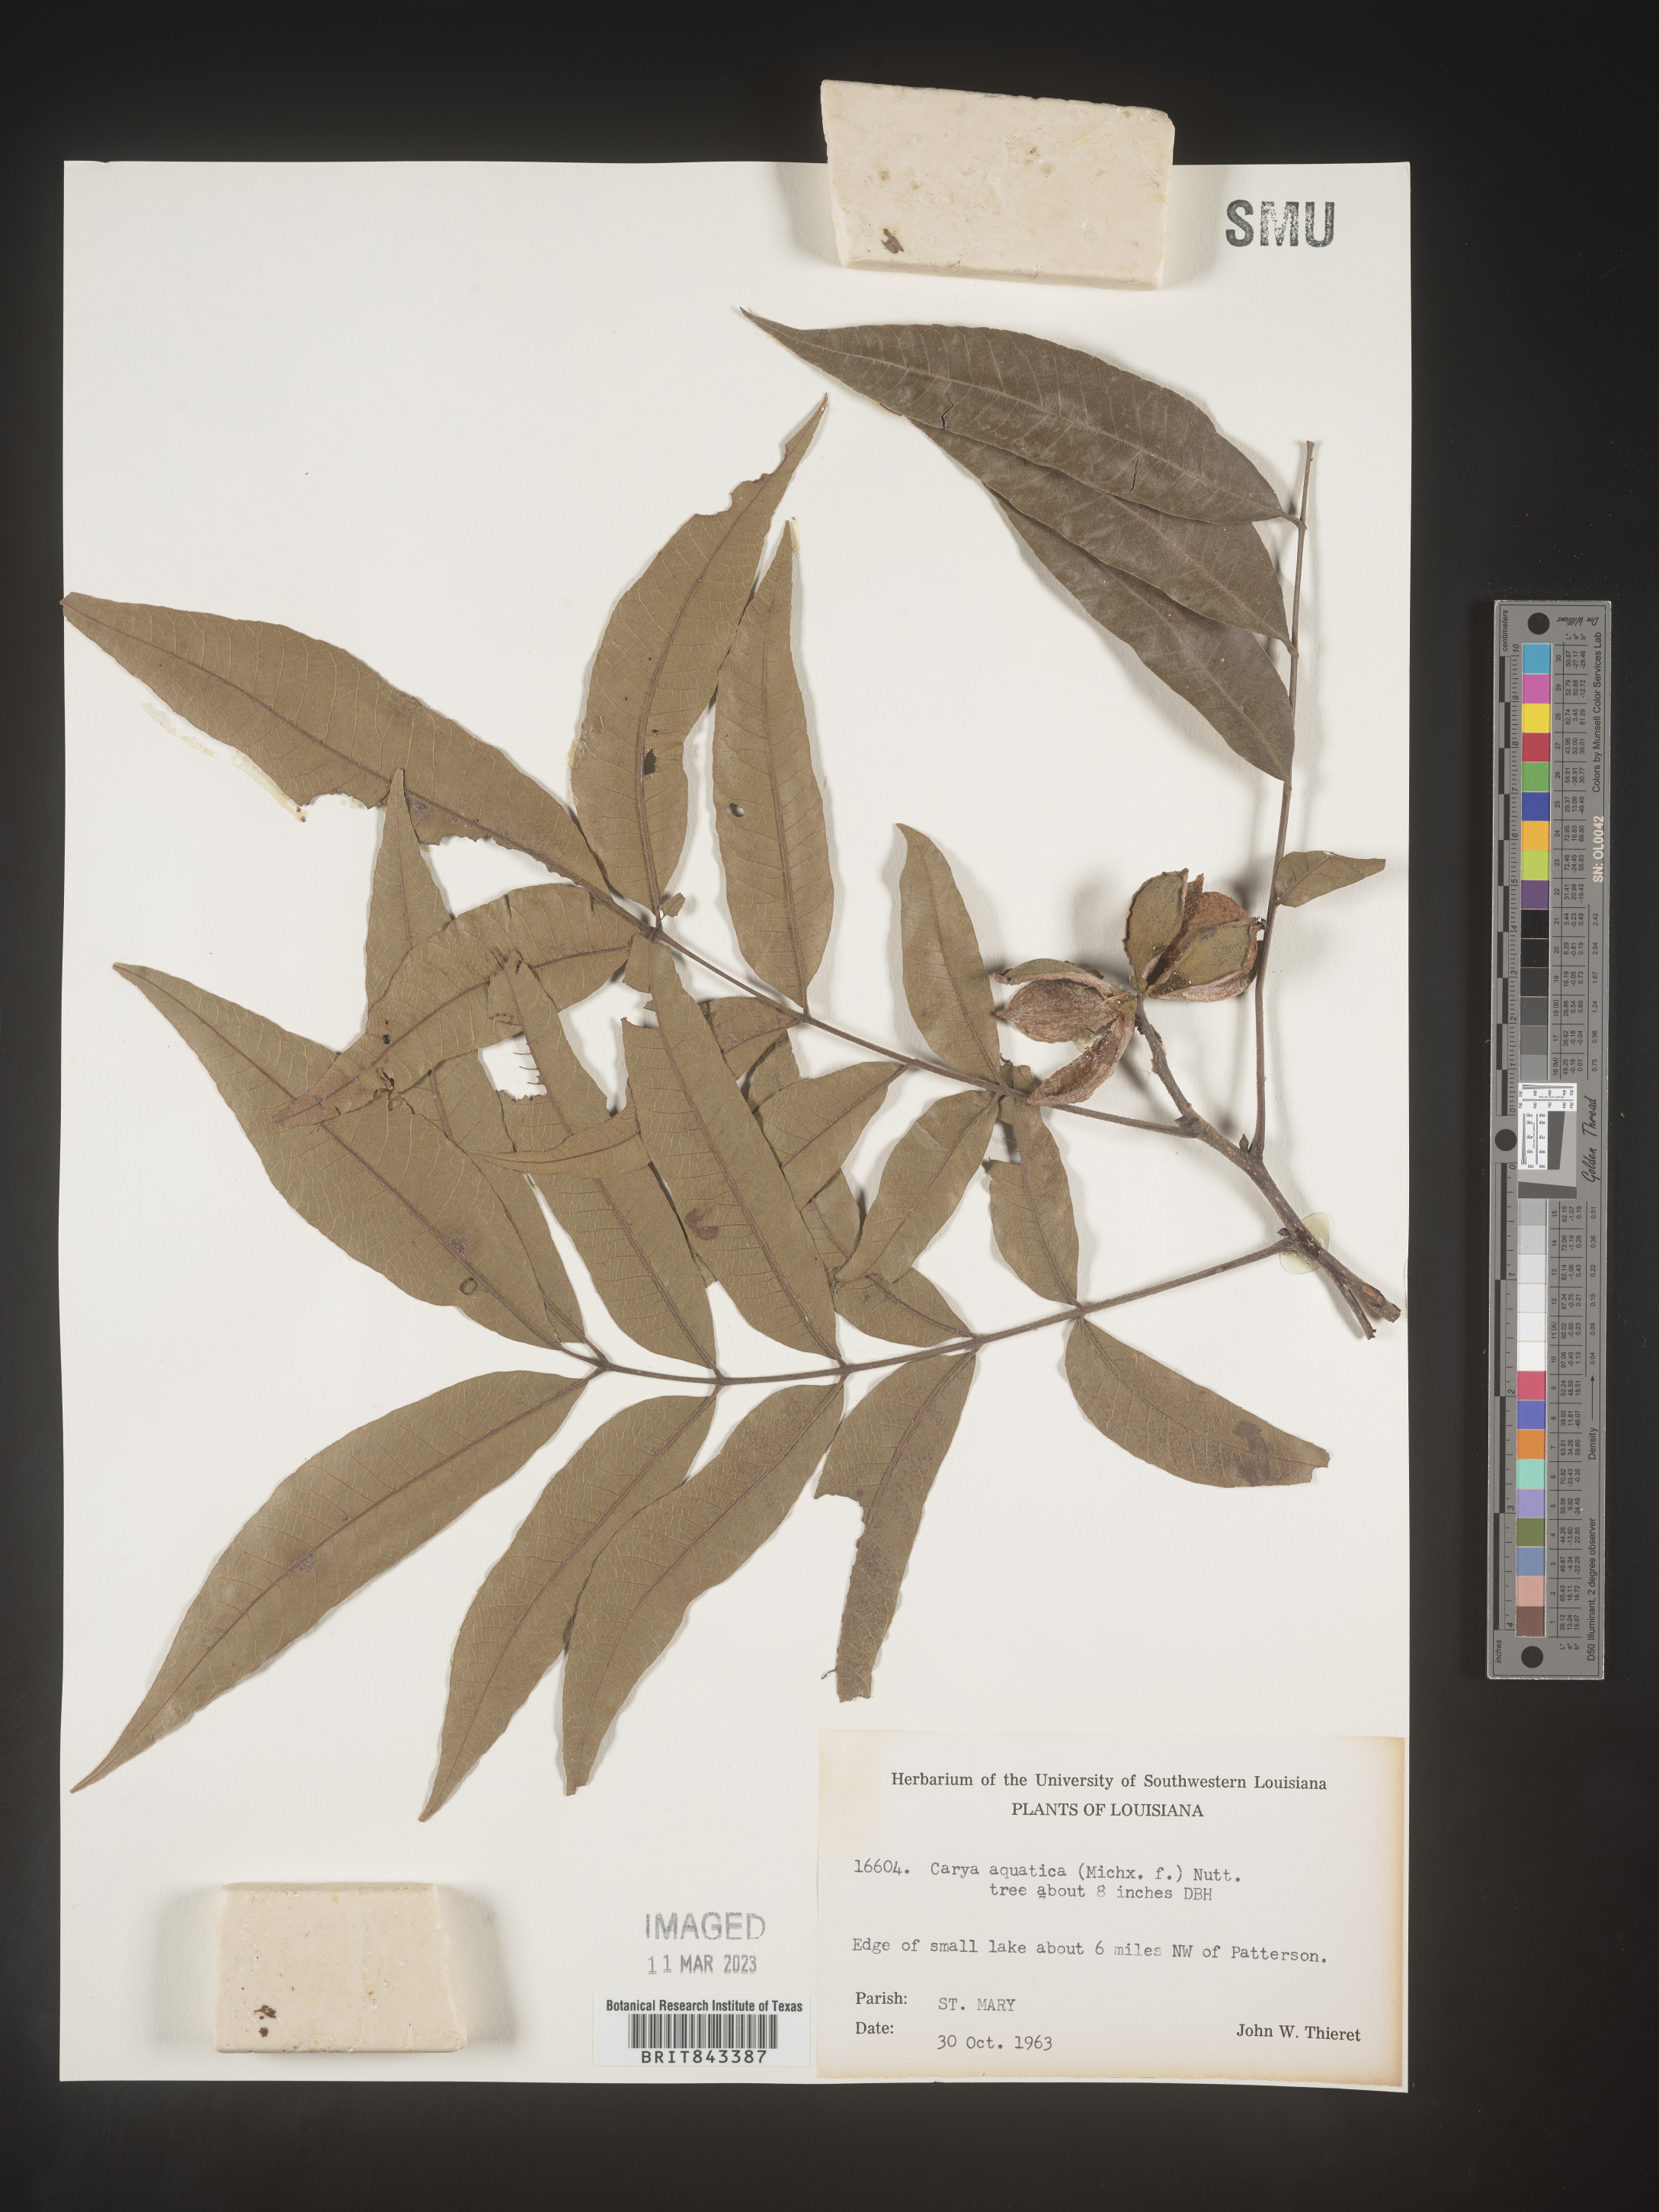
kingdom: Plantae
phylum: Tracheophyta
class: Magnoliopsida
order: Fagales
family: Juglandaceae
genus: Carya
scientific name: Carya aquatica
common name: Water hickory
